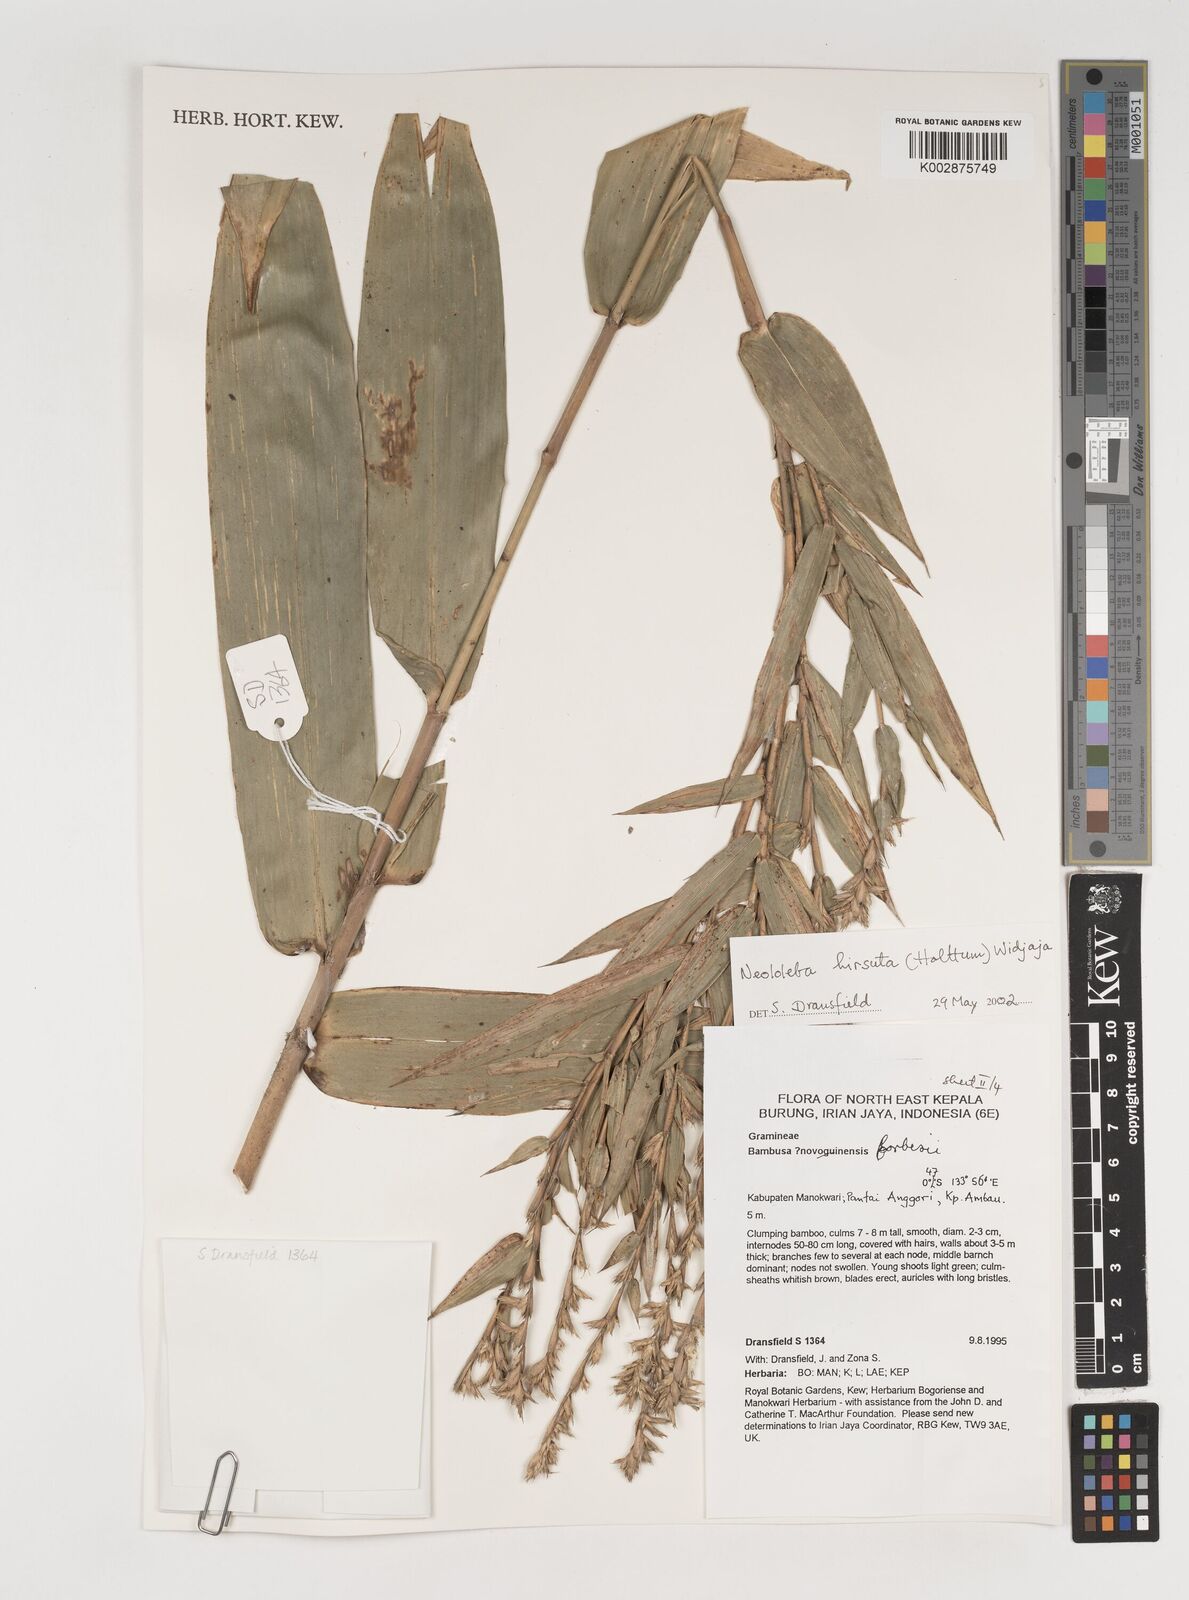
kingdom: Plantae
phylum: Tracheophyta
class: Liliopsida
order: Poales
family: Poaceae
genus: Neololeba
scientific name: Neololeba hirsuta
